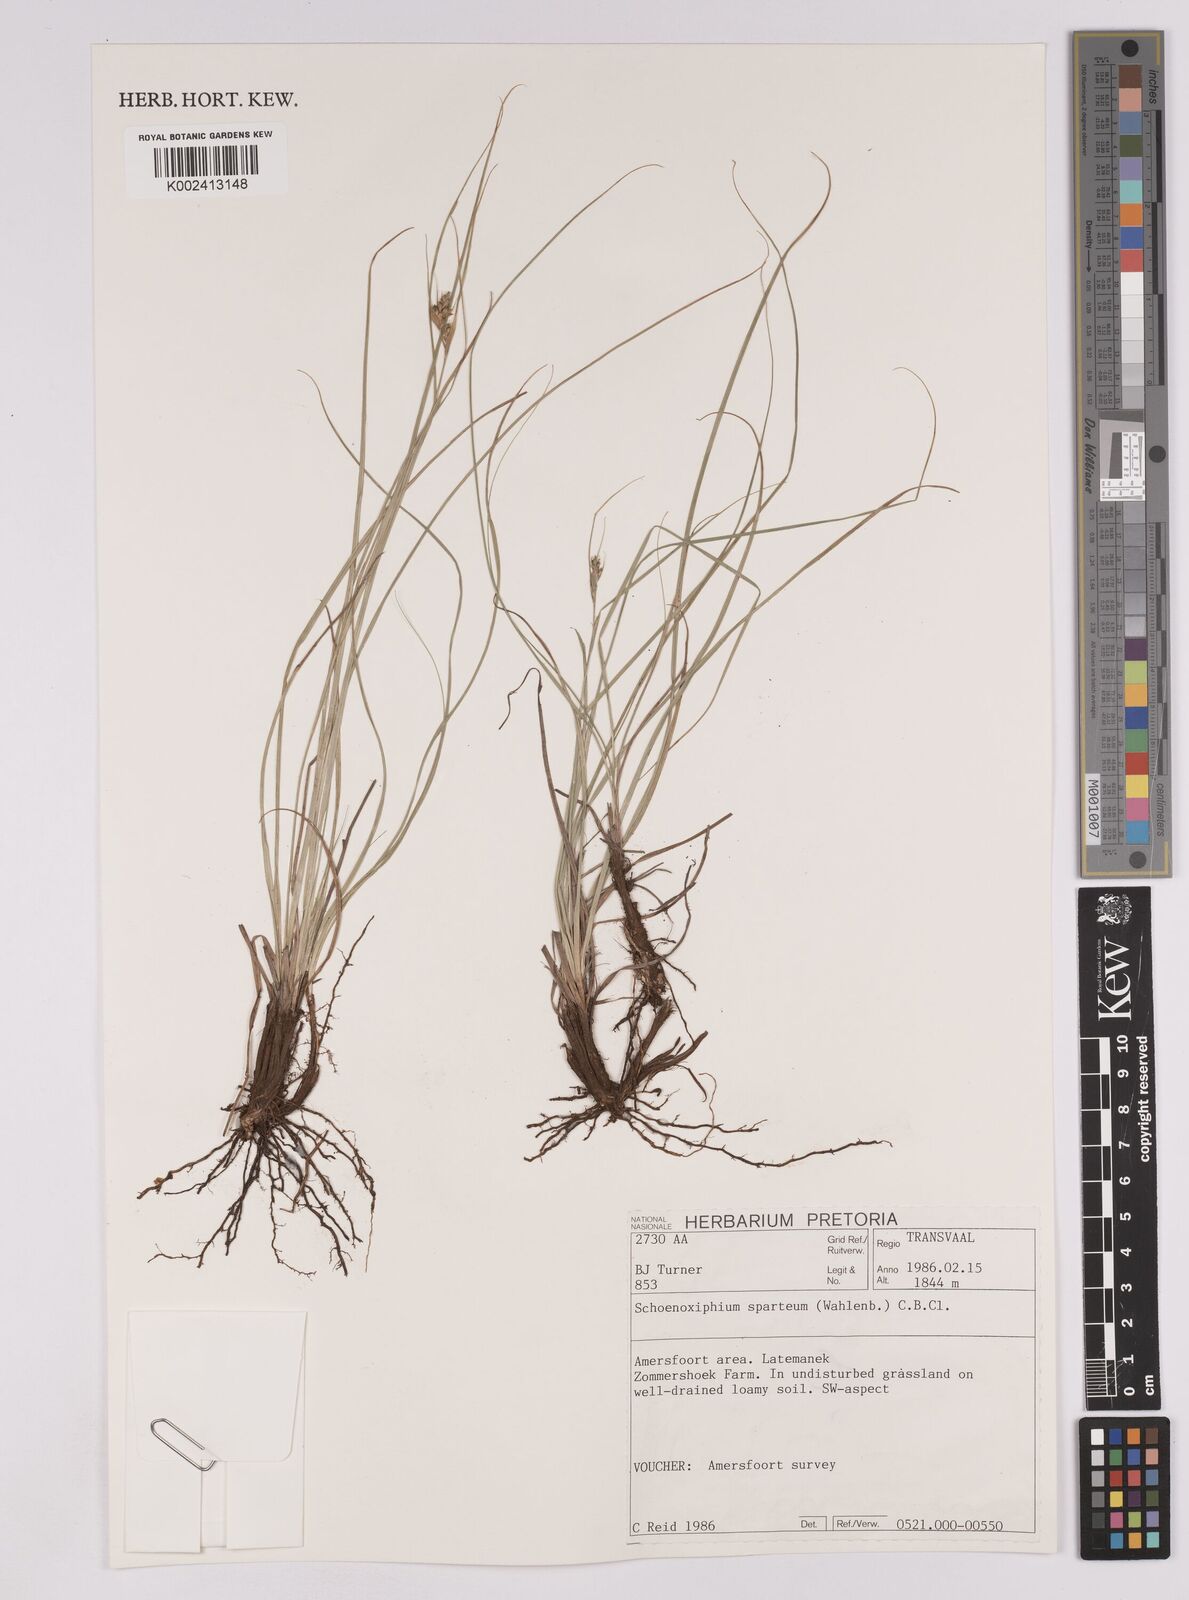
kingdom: Plantae
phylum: Tracheophyta
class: Liliopsida
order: Poales
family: Cyperaceae
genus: Carex
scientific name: Carex spartea
